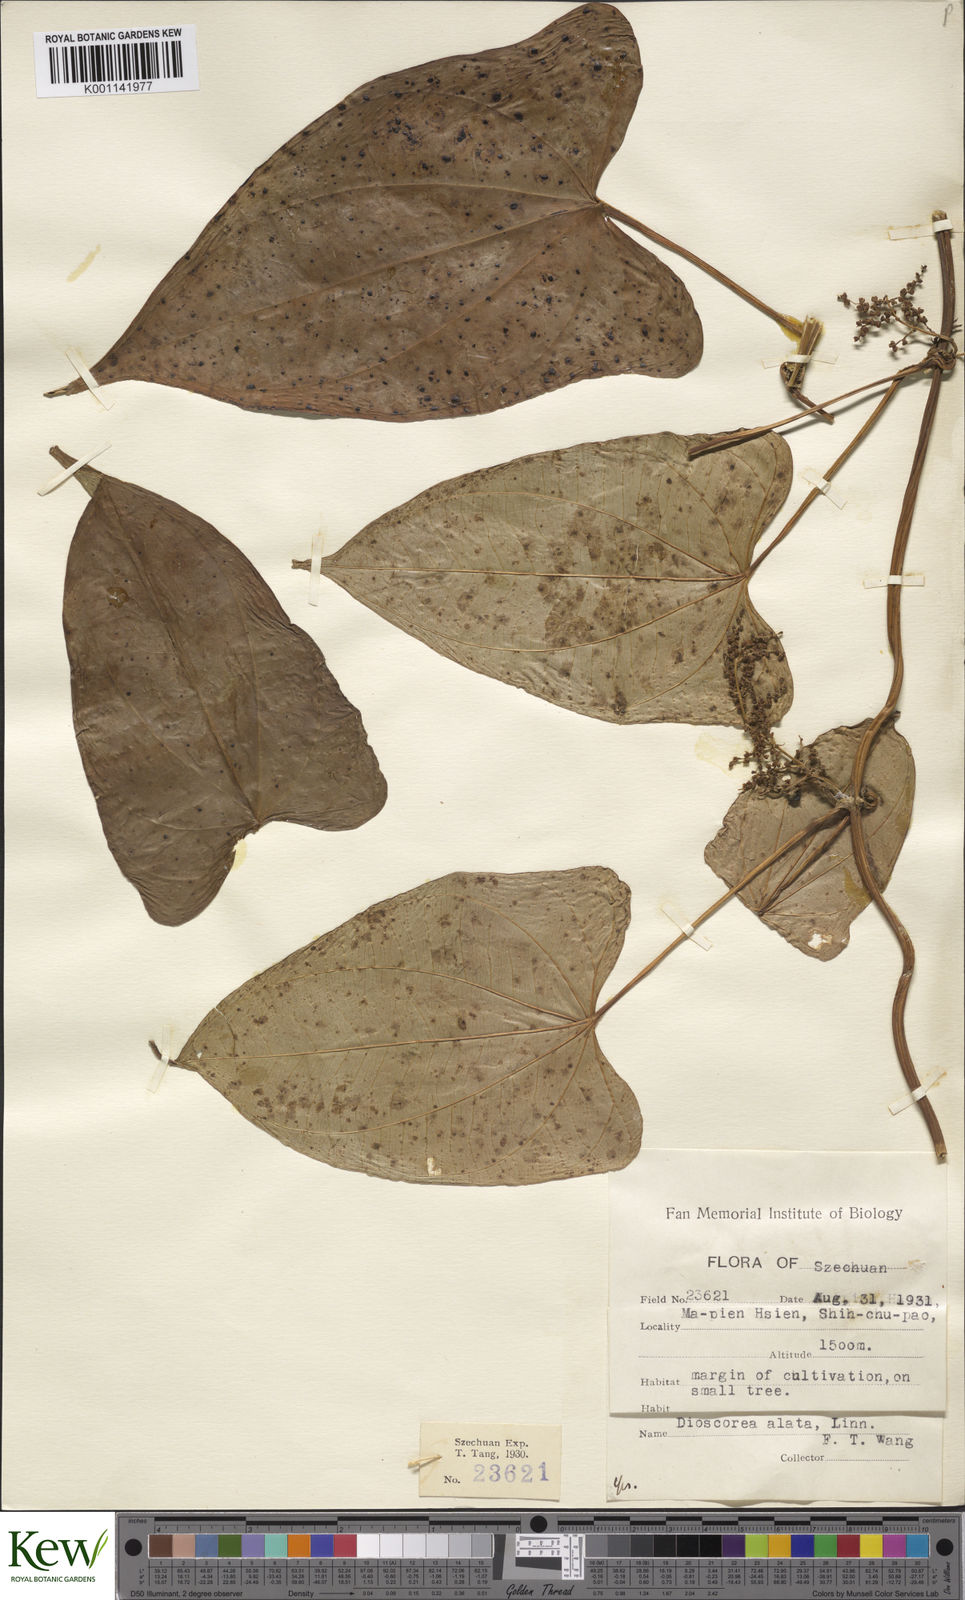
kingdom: Plantae
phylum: Tracheophyta
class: Liliopsida
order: Dioscoreales
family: Dioscoreaceae
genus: Dioscorea
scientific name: Dioscorea alata
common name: Water yam
